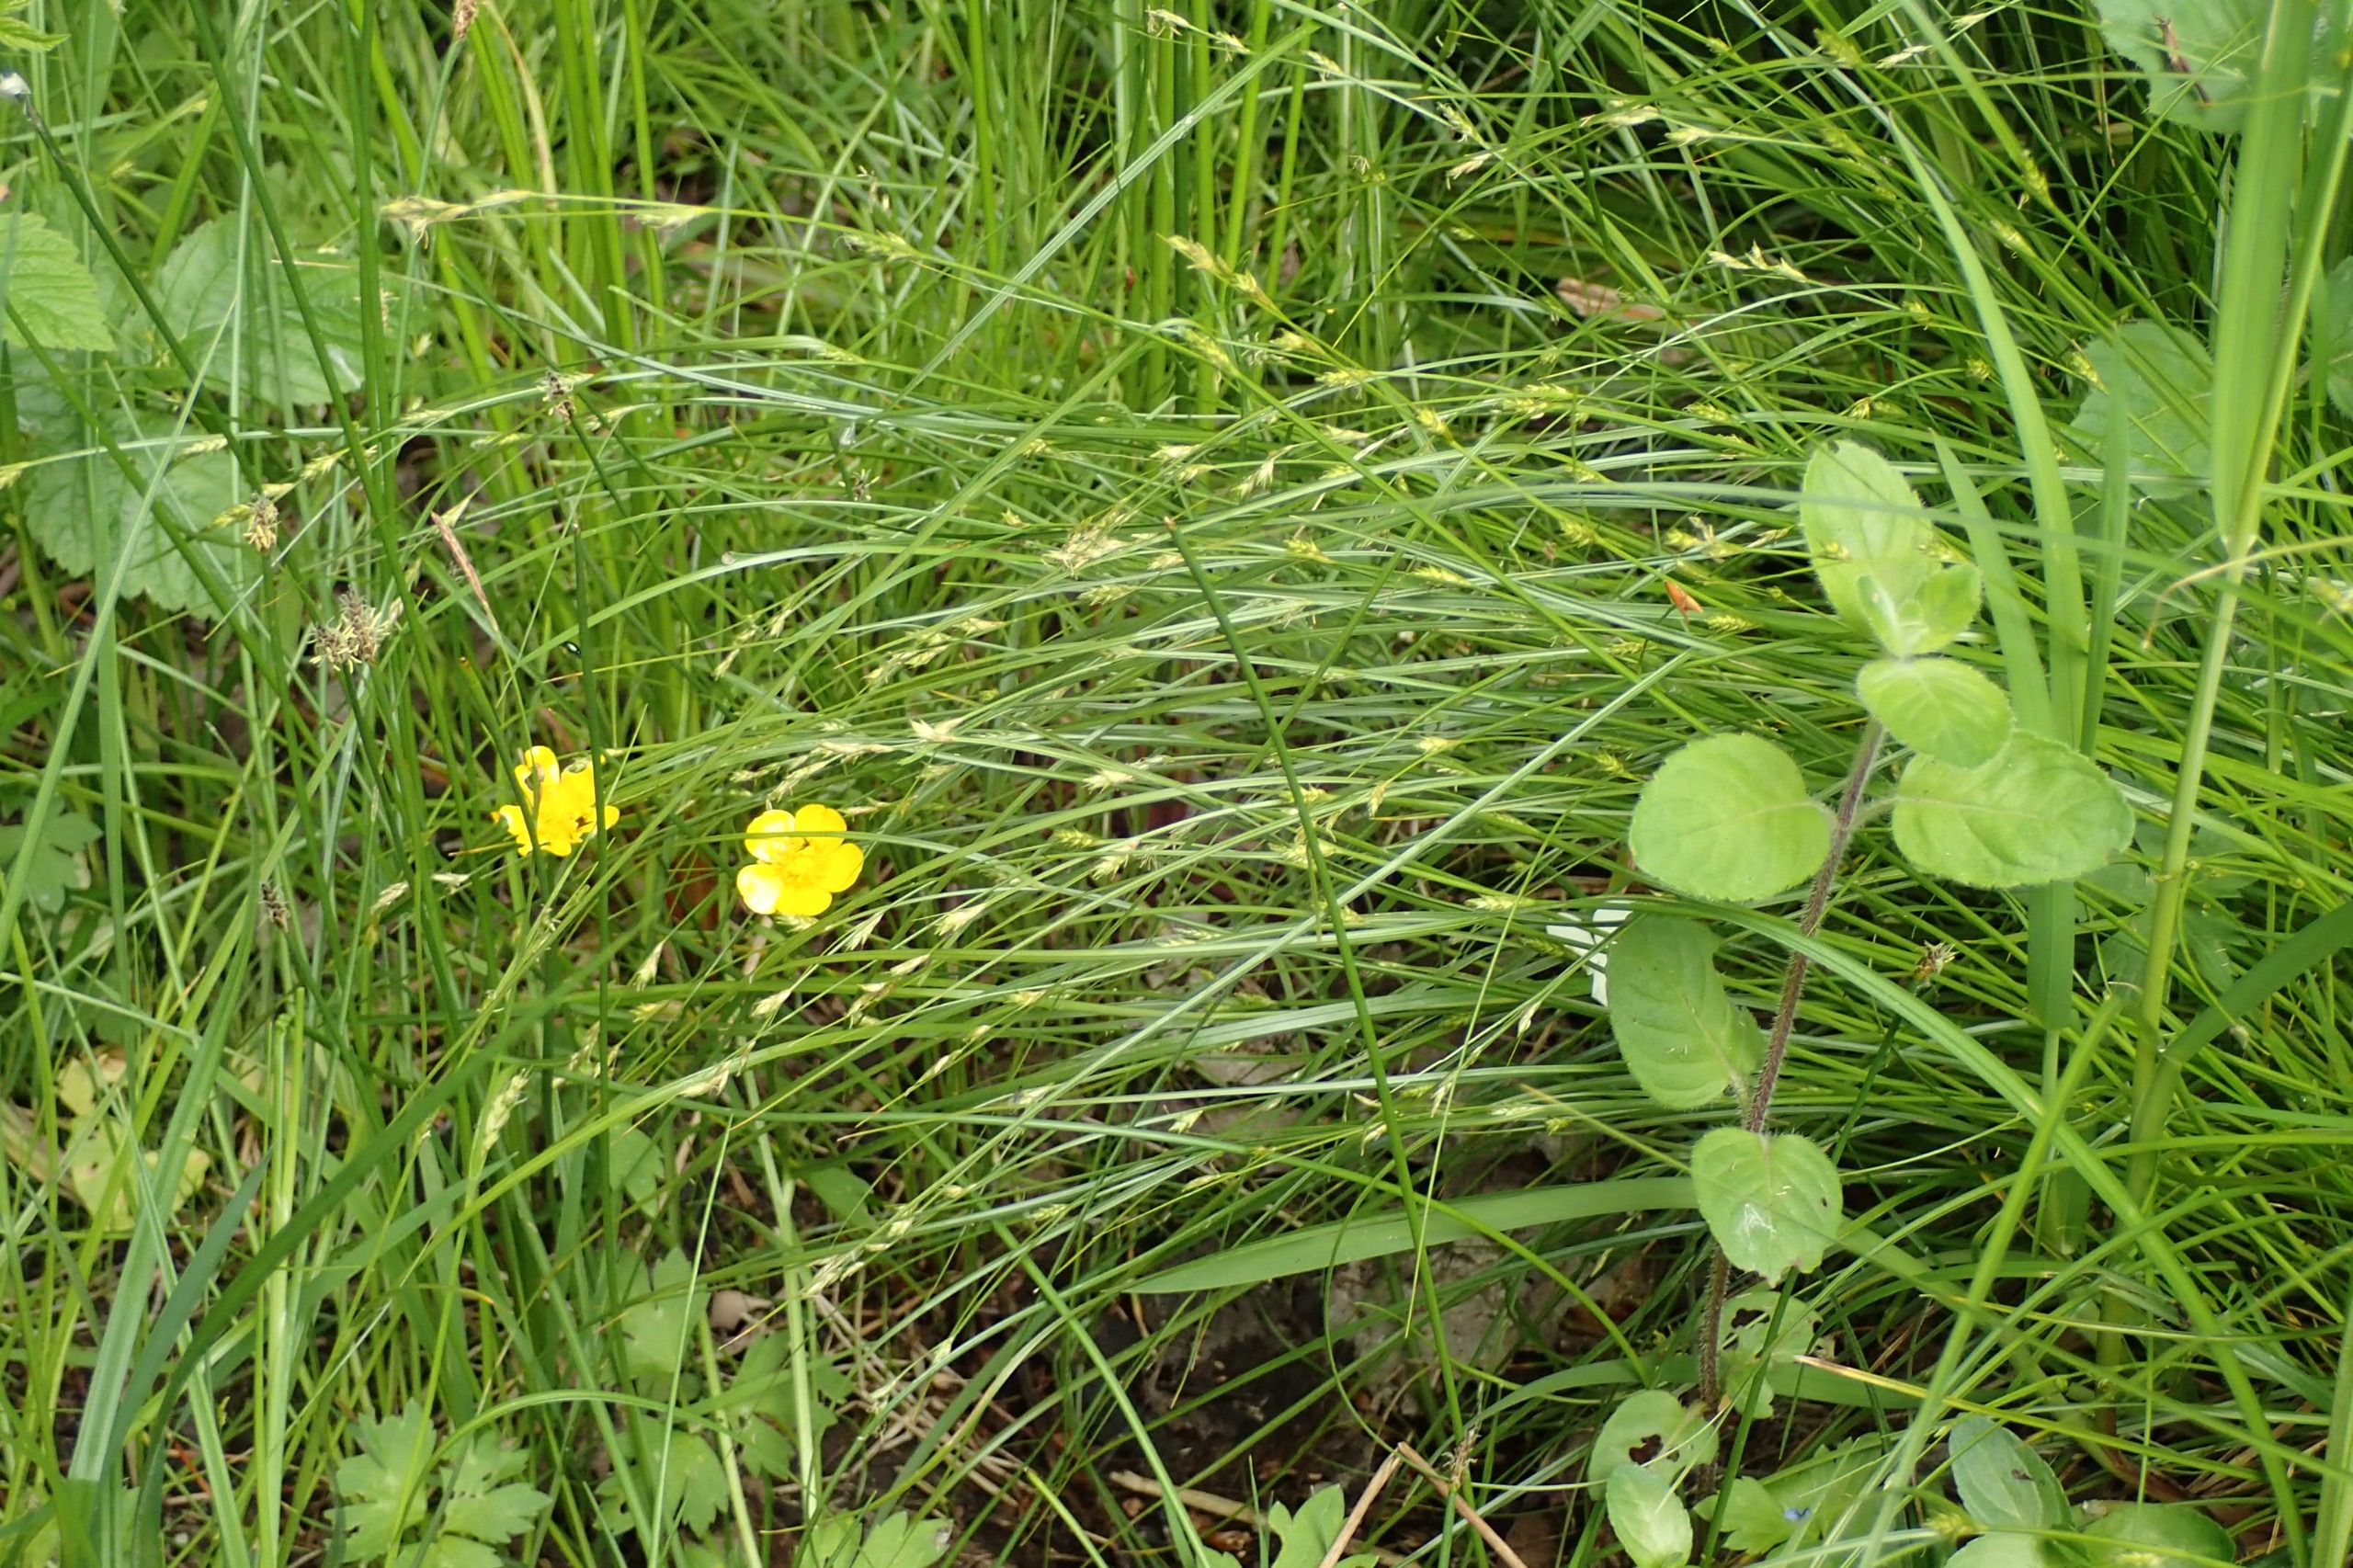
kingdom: Plantae
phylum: Tracheophyta
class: Liliopsida
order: Poales
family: Cyperaceae
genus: Carex
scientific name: Carex remota
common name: Akselblomstret star
